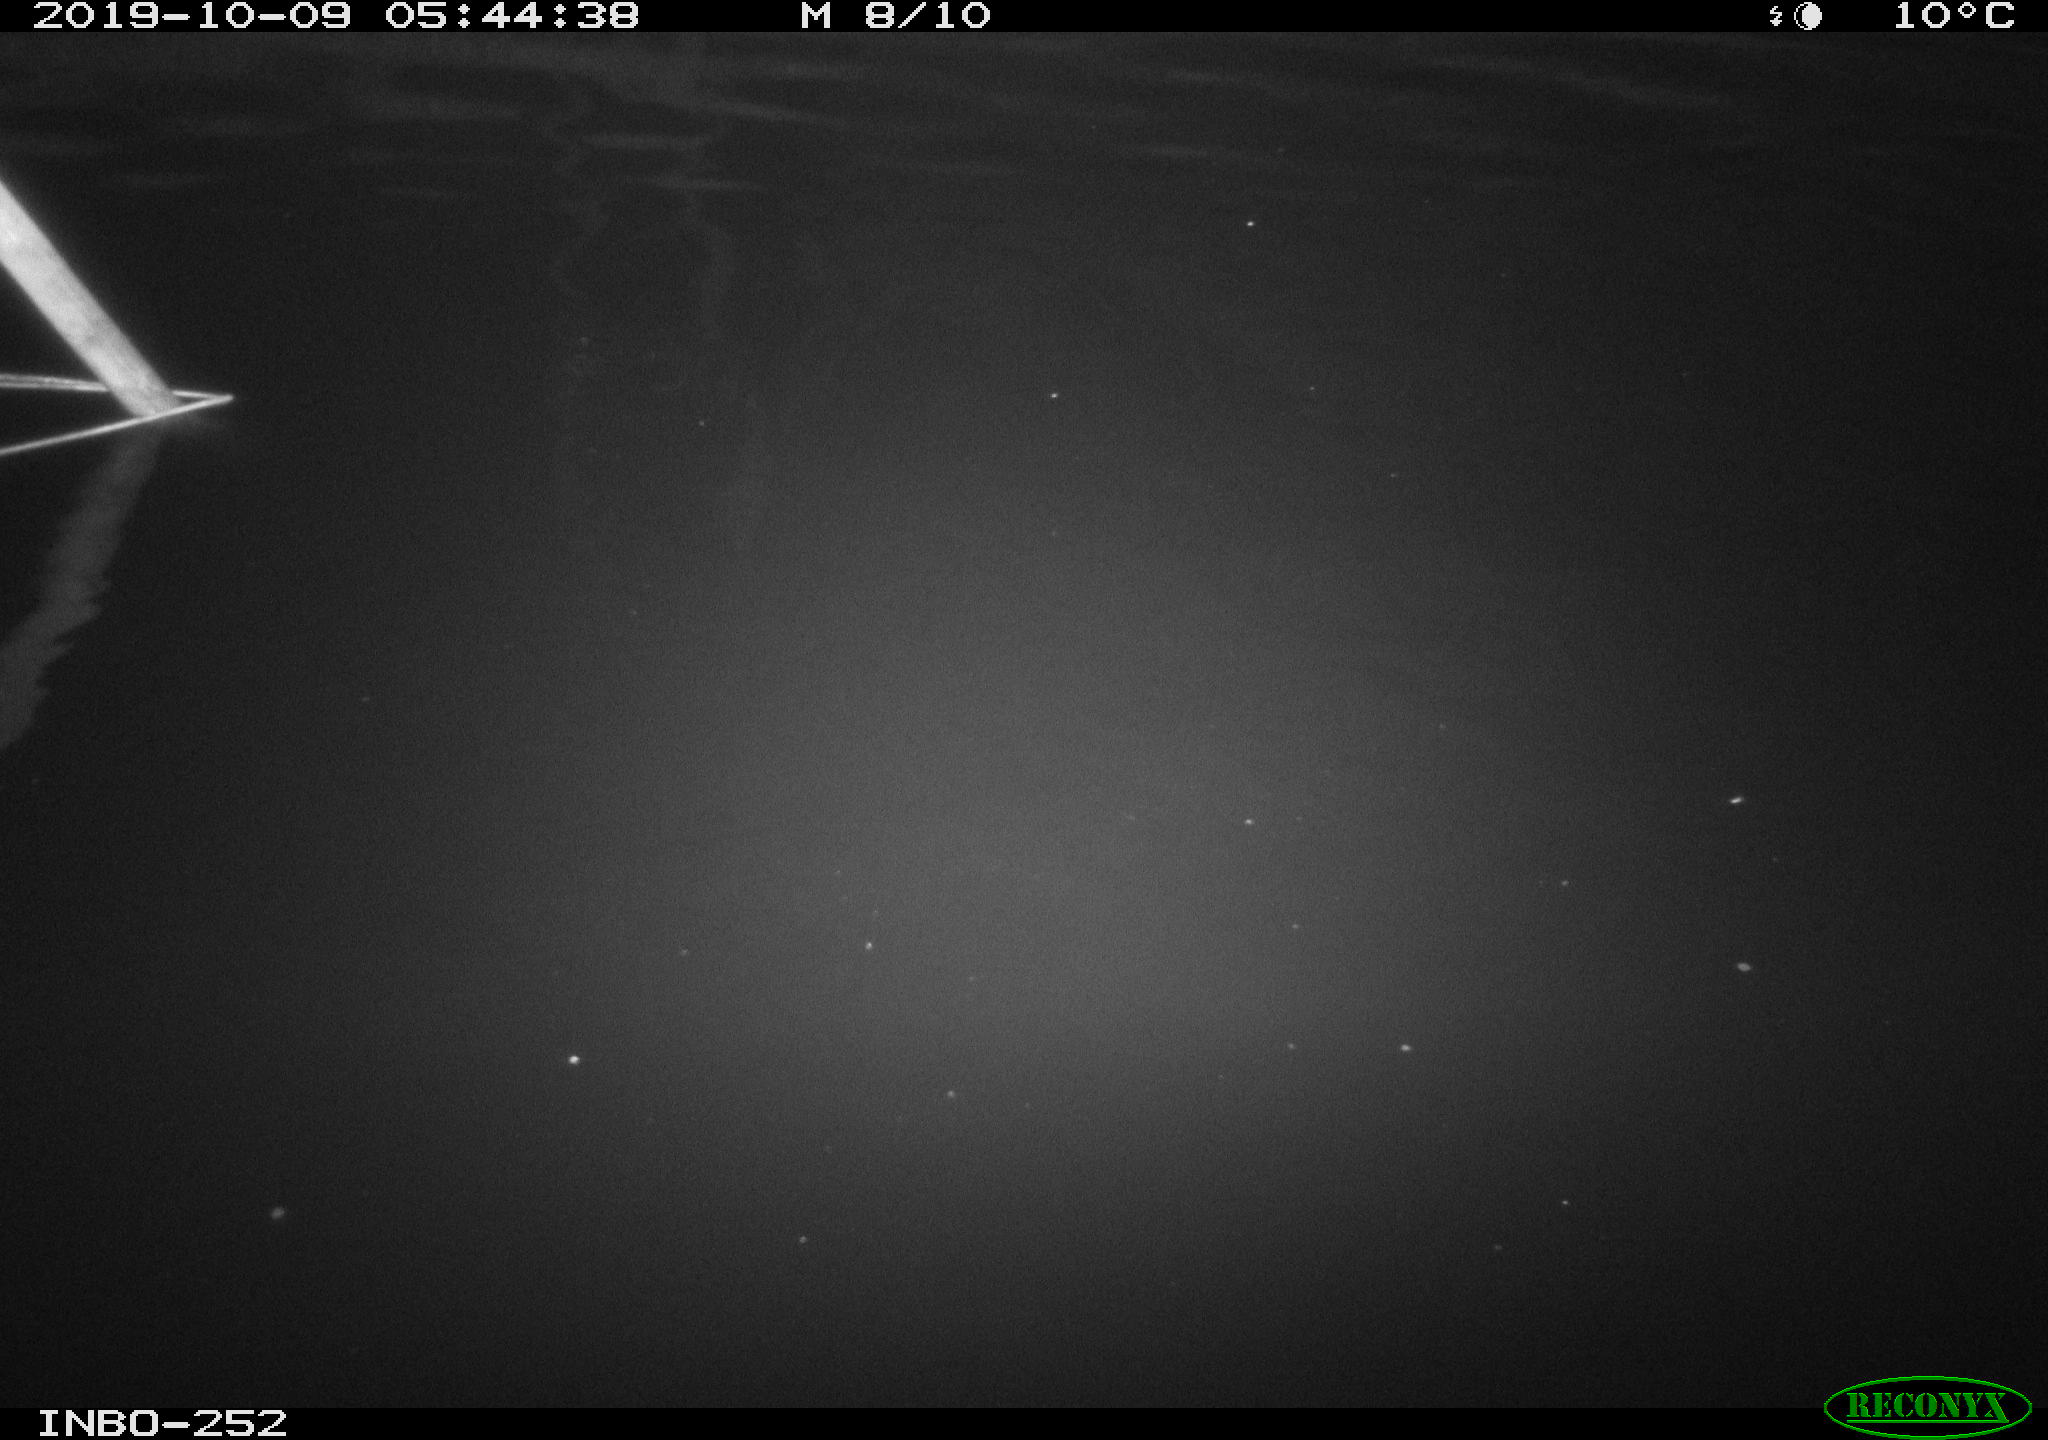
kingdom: Animalia
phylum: Chordata
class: Aves
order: Anseriformes
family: Anatidae
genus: Anas
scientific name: Anas platyrhynchos
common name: Mallard
